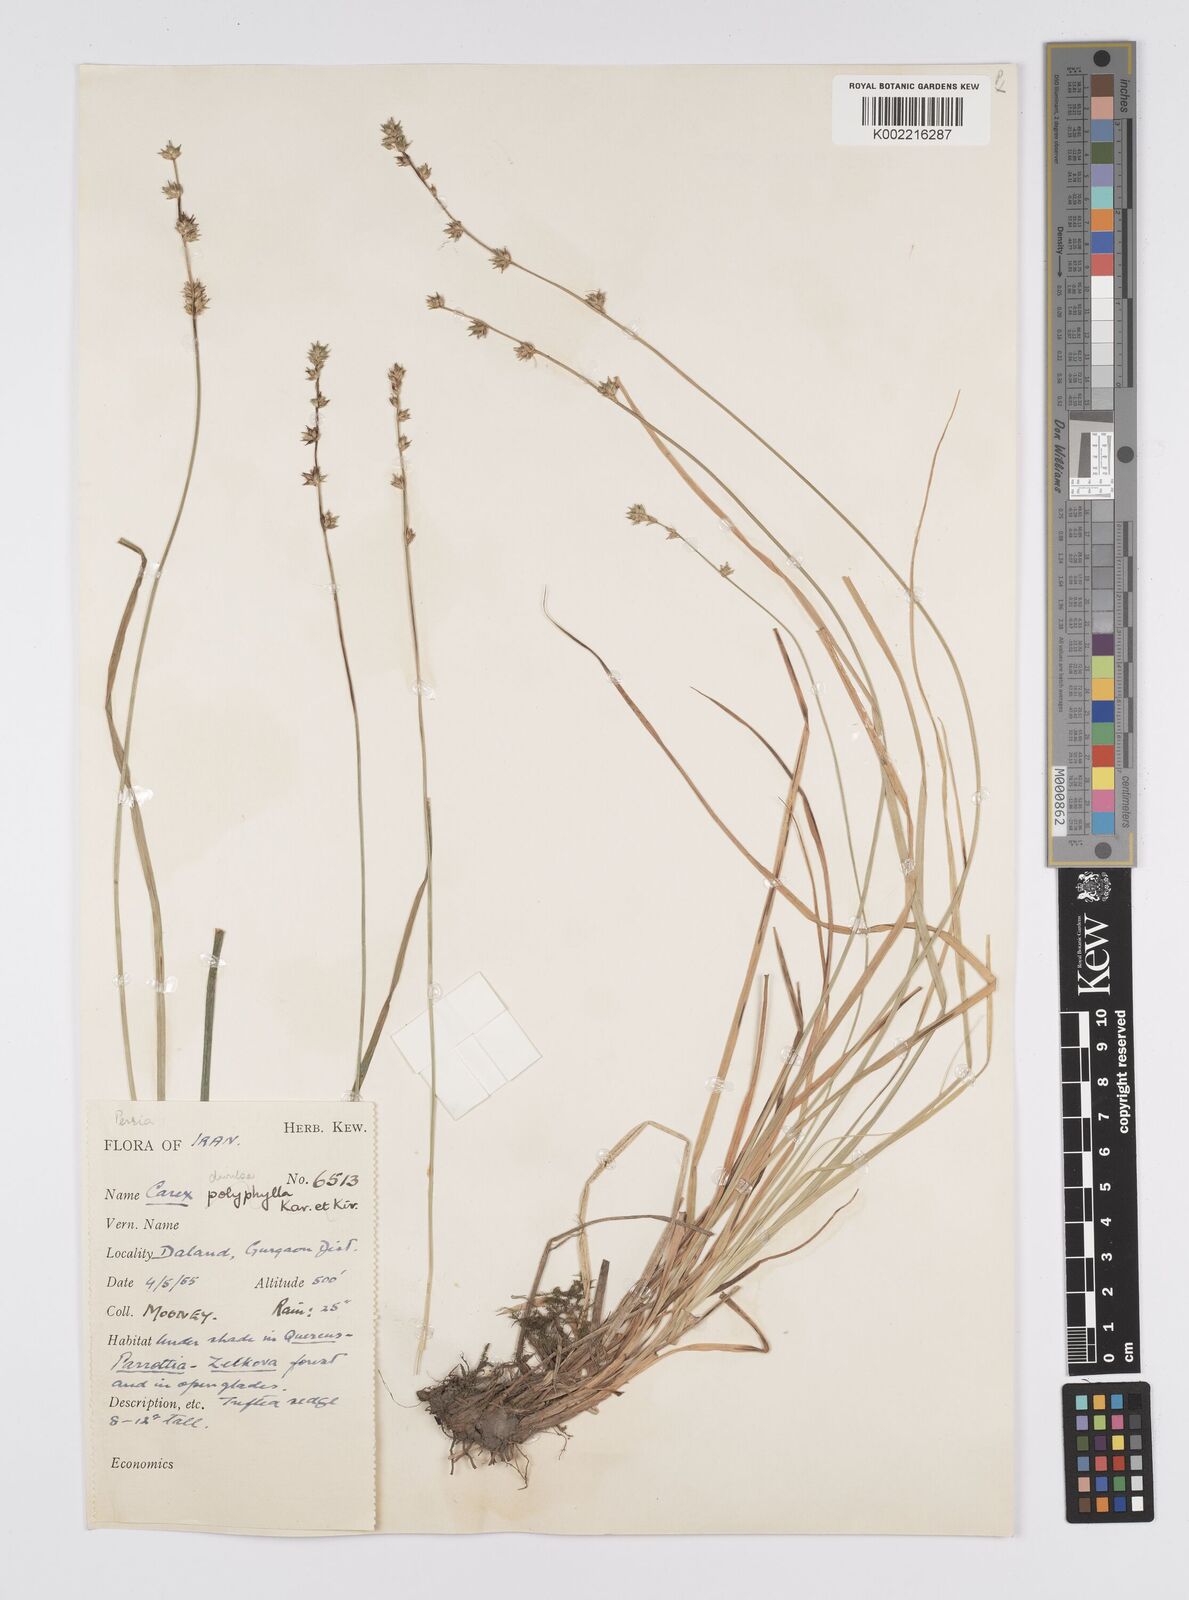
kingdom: Plantae
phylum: Tracheophyta
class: Liliopsida
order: Poales
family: Cyperaceae
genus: Carex
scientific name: Carex divulsa
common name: Grassland sedge
